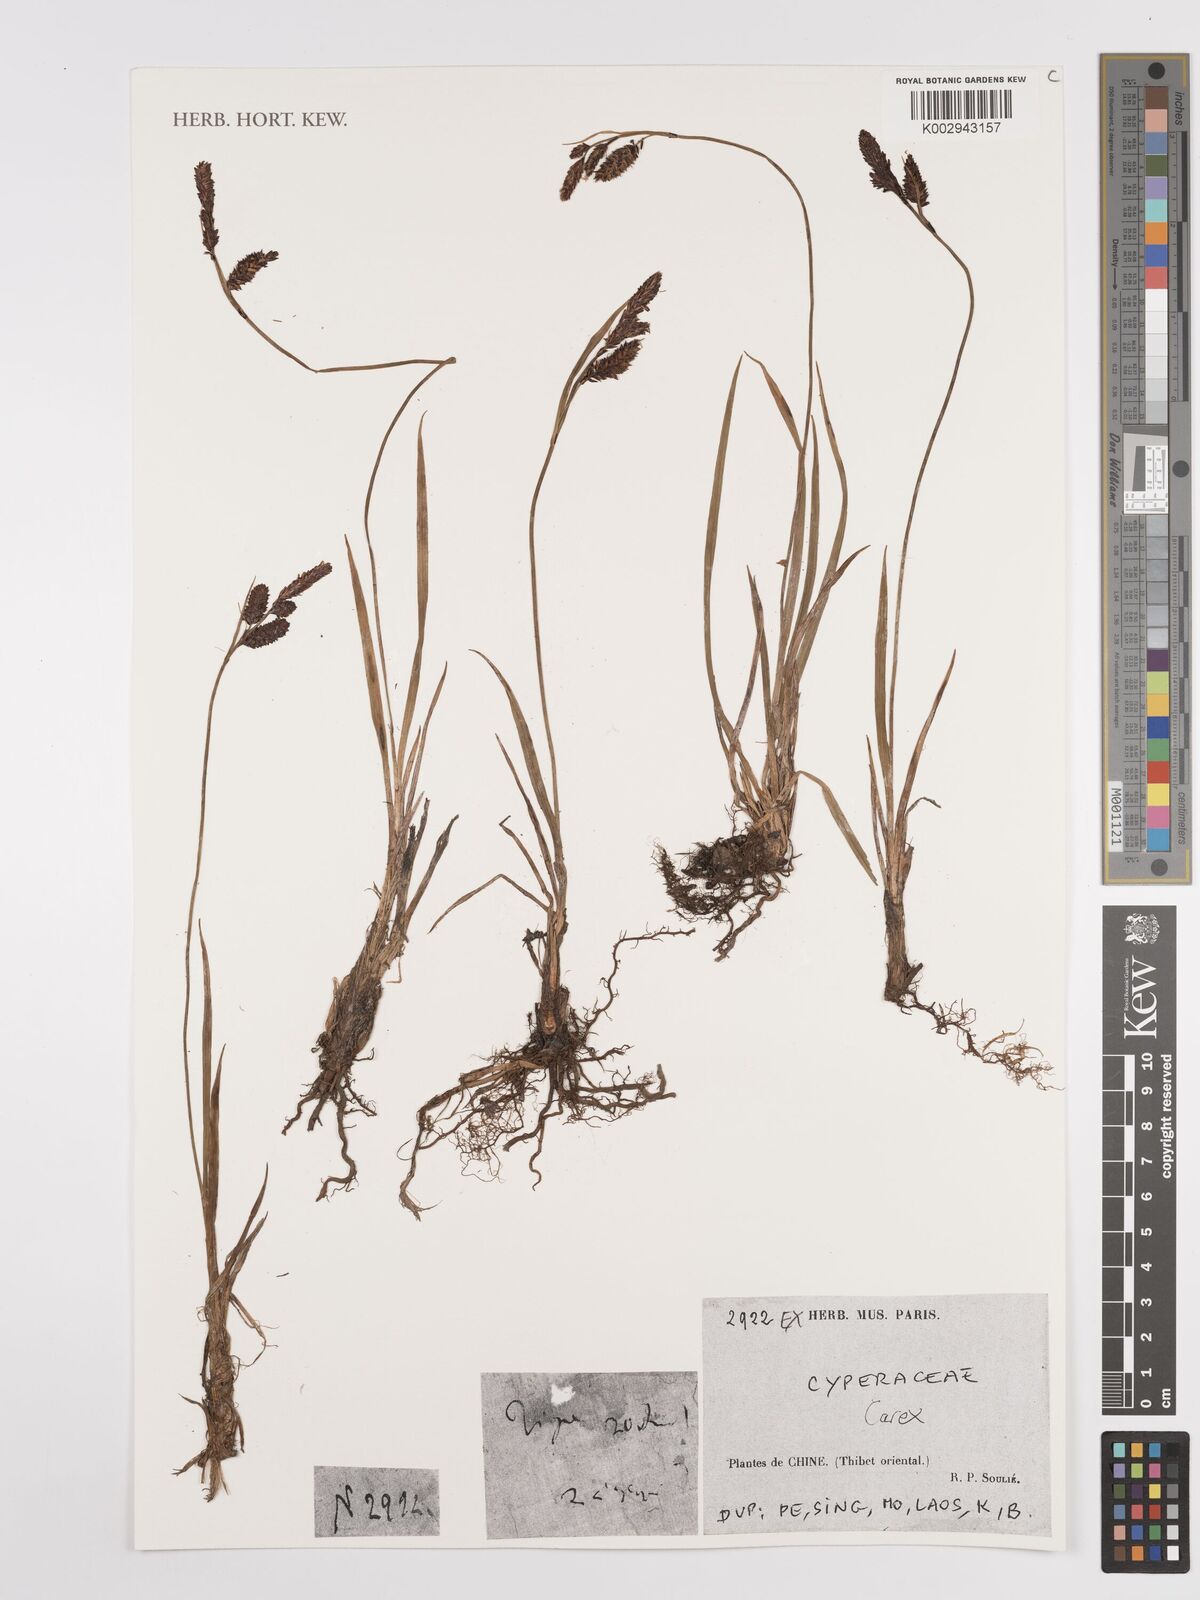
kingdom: Plantae
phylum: Tracheophyta
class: Liliopsida
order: Poales
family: Cyperaceae
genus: Carex
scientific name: Carex
